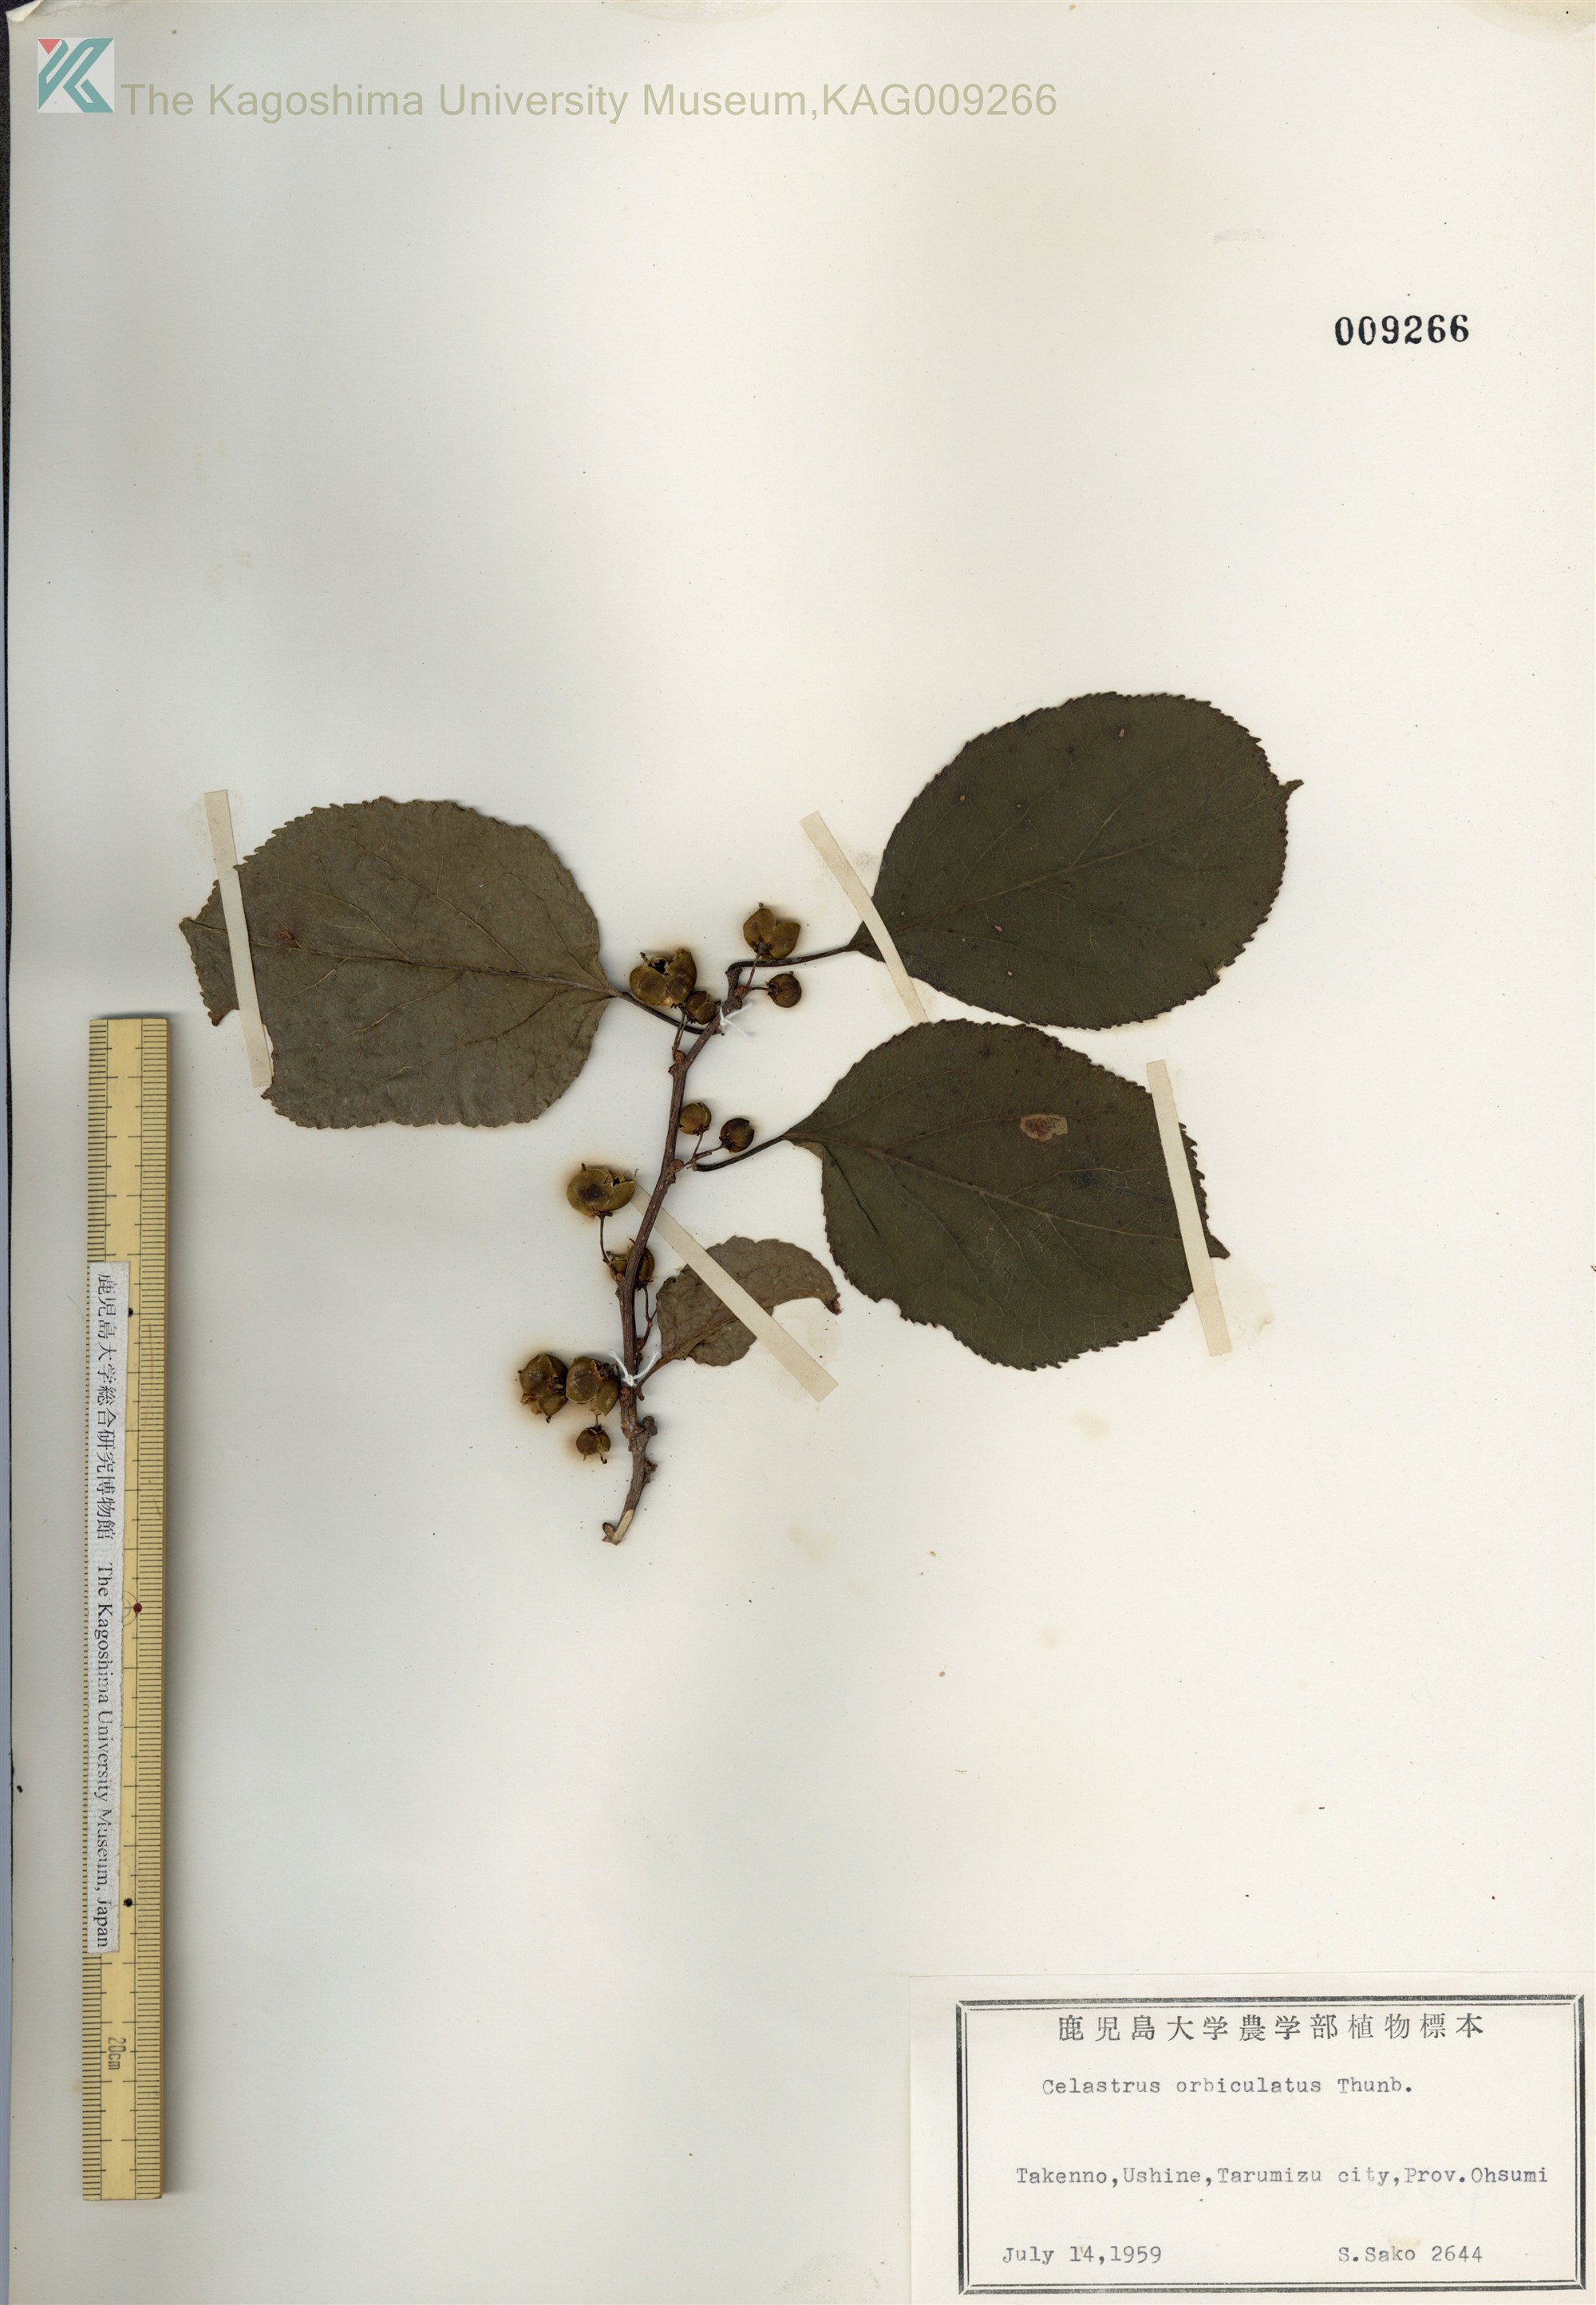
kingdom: Plantae
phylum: Tracheophyta
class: Magnoliopsida
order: Celastrales
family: Celastraceae
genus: Celastrus
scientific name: Celastrus orbiculatus
